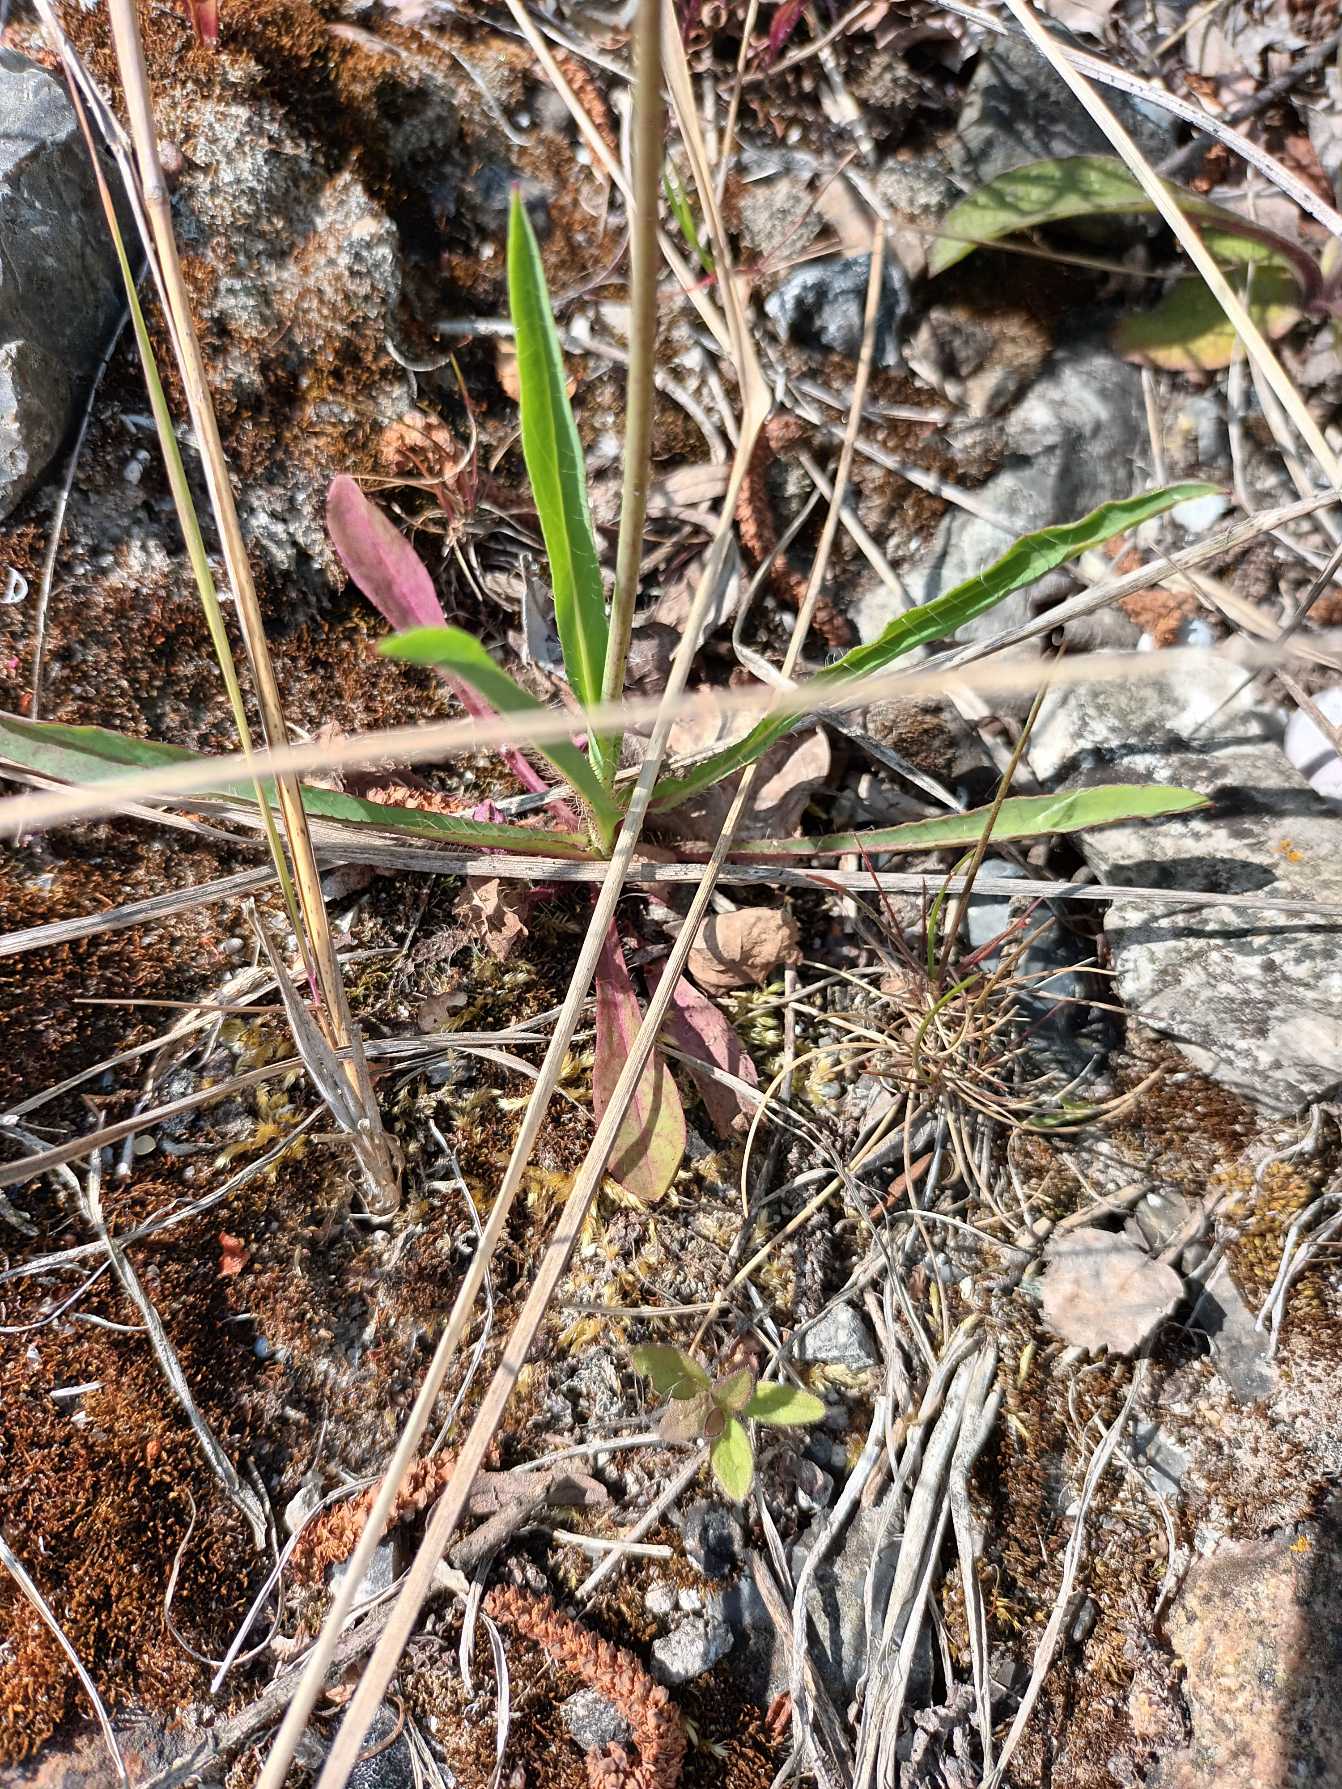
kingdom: Plantae
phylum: Tracheophyta
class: Magnoliopsida
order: Asterales
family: Asteraceae
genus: Pilosella
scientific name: Pilosella cymosa
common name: Kvast-høgeurt
